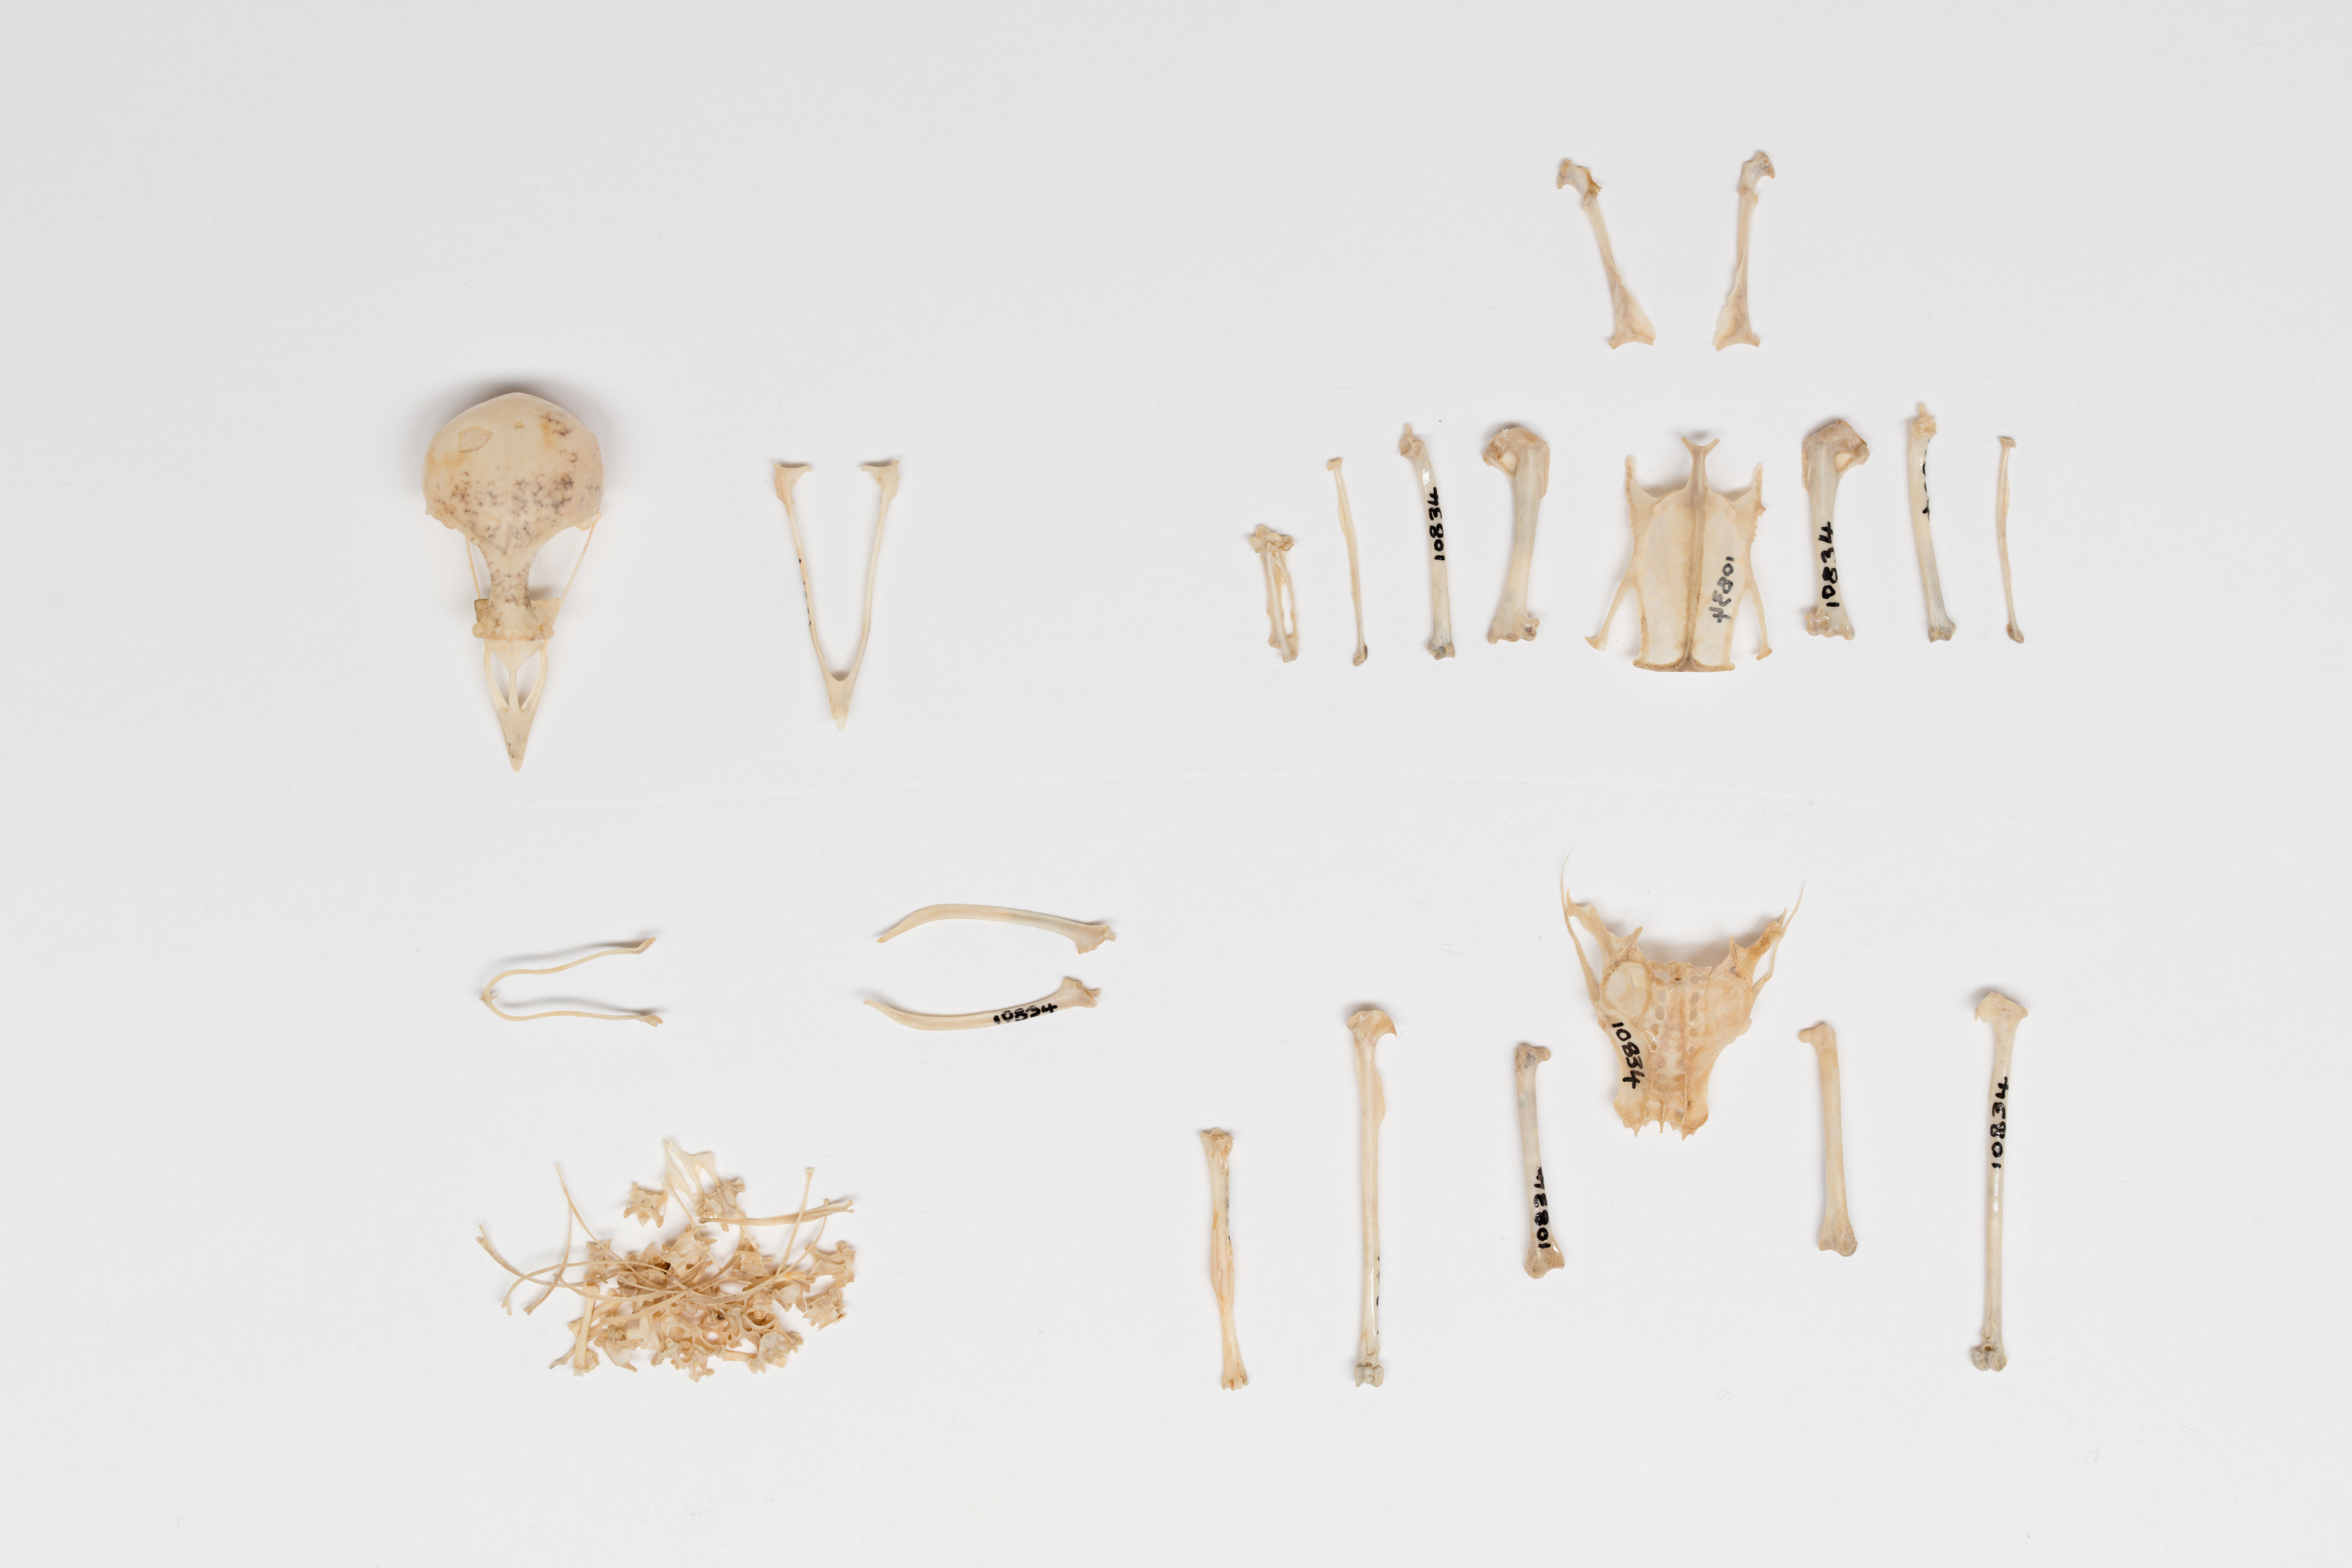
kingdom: Animalia
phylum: Chordata
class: Aves
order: Passeriformes
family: Prunellidae
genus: Prunella
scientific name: Prunella modularis
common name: Dunnock
